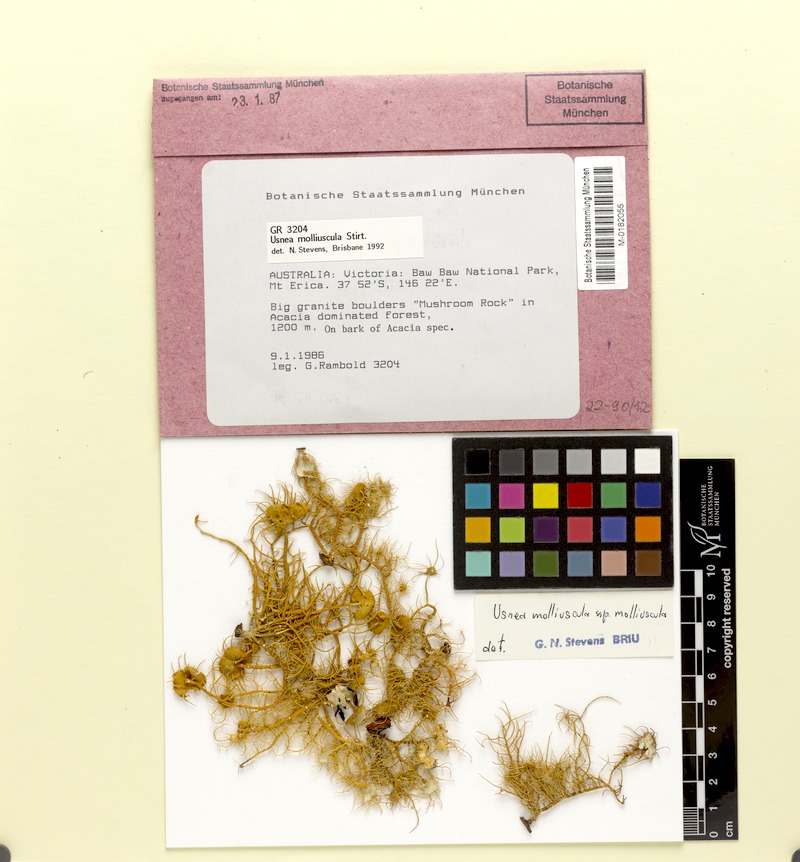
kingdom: Fungi
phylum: Ascomycota
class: Lecanoromycetes
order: Lecanorales
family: Parmeliaceae
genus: Usnea
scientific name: Usnea molliuscula
